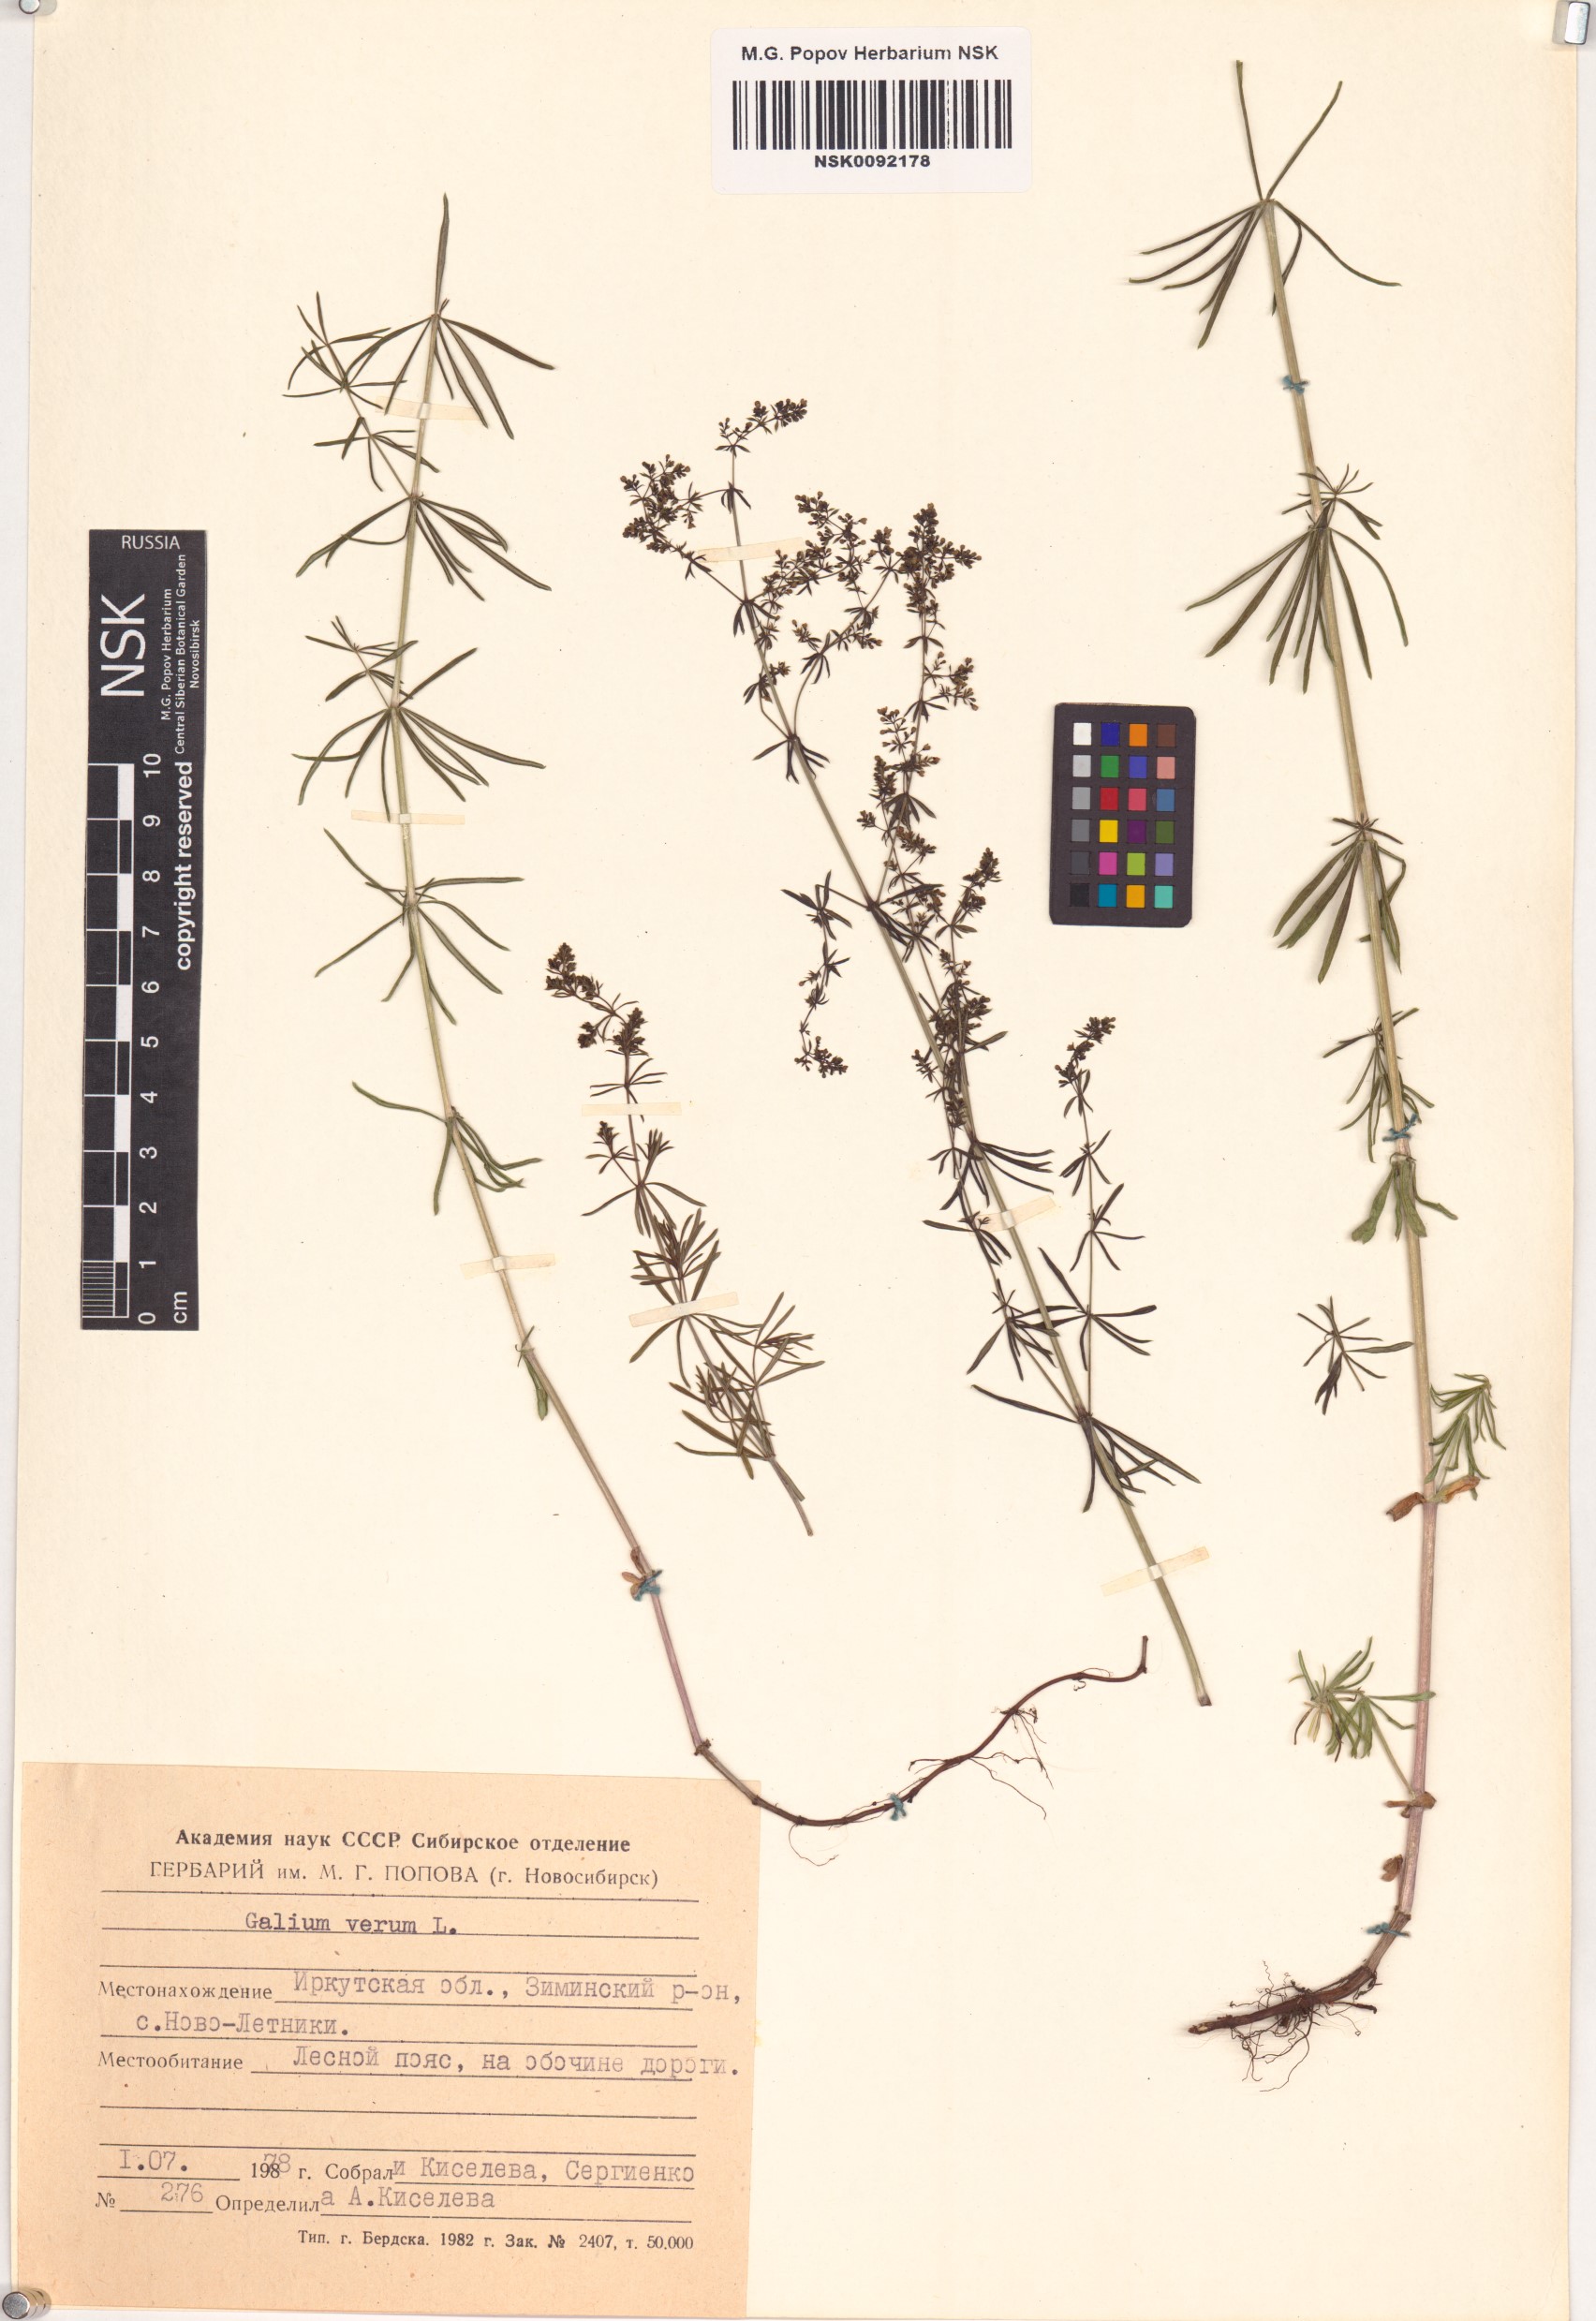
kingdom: Plantae
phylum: Tracheophyta
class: Magnoliopsida
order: Gentianales
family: Rubiaceae
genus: Galium
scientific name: Galium verum
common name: Lady's bedstraw
